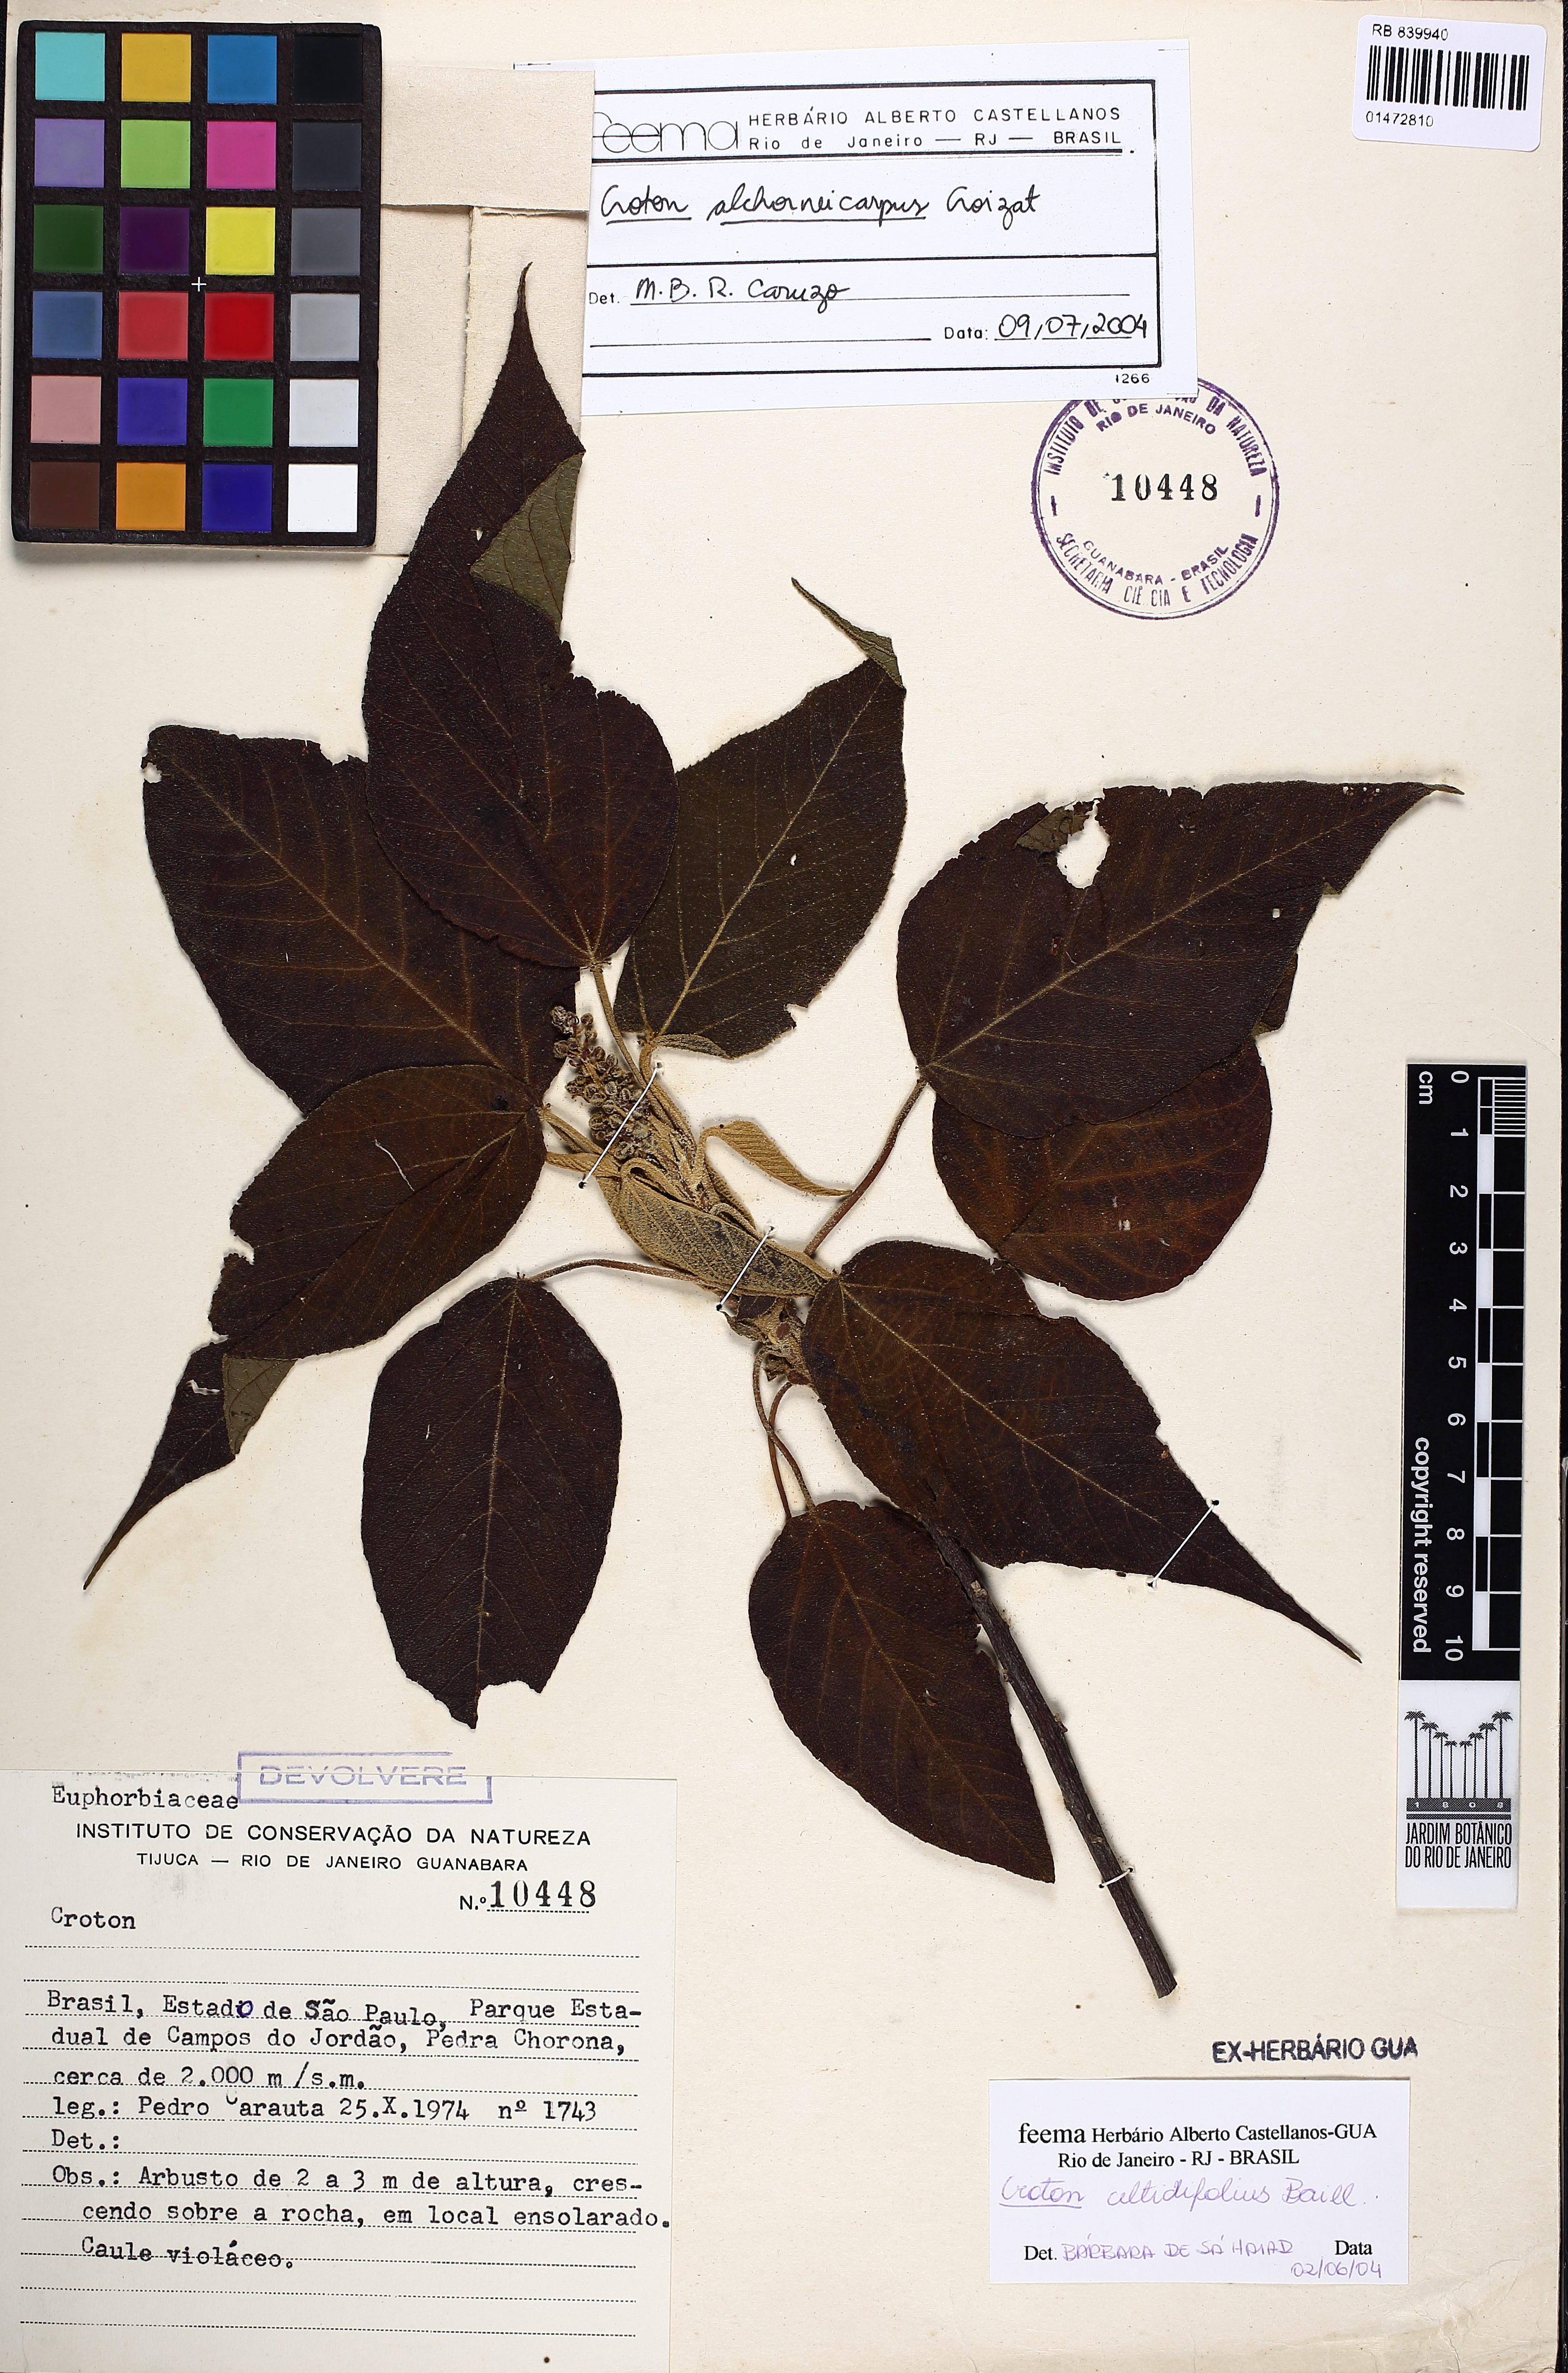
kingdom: Plantae
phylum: Tracheophyta
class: Magnoliopsida
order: Malpighiales
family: Euphorbiaceae
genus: Croton
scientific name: Croton alchorneicarpus
